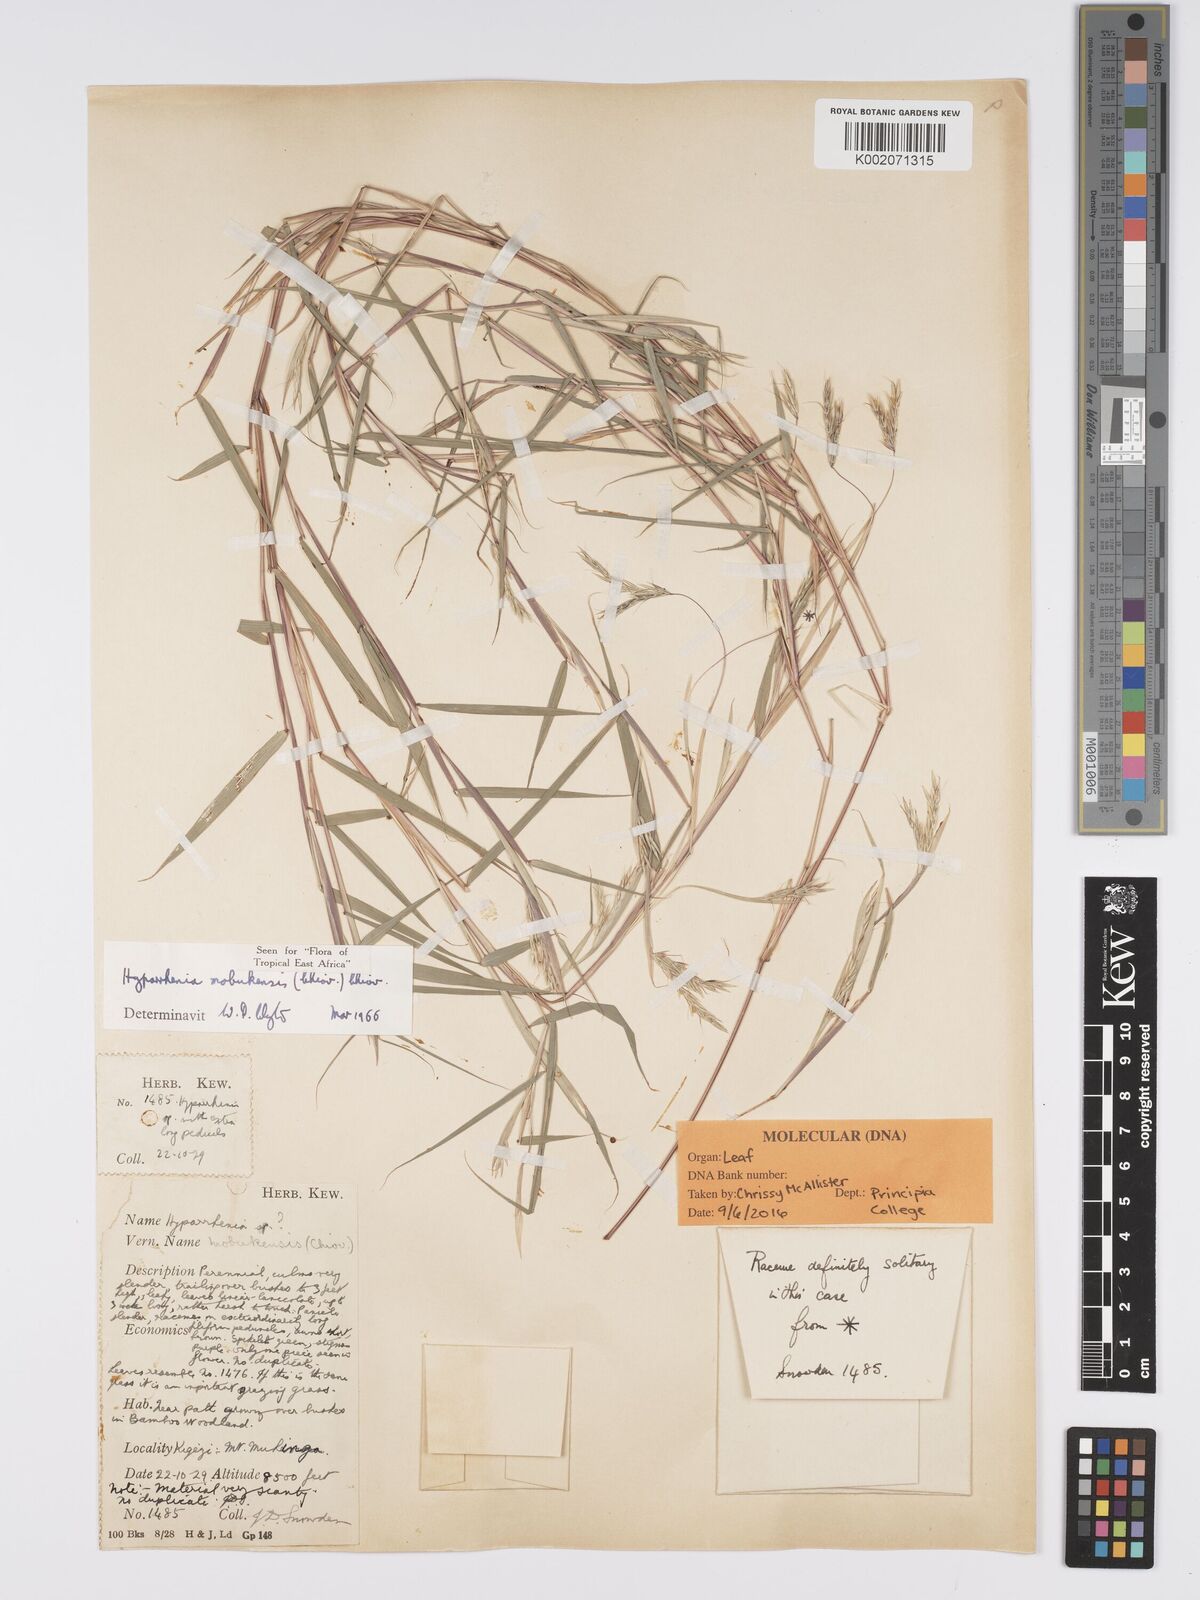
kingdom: Plantae
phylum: Tracheophyta
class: Liliopsida
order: Poales
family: Poaceae
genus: Hyparrhenia
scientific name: Hyparrhenia mobukensis
